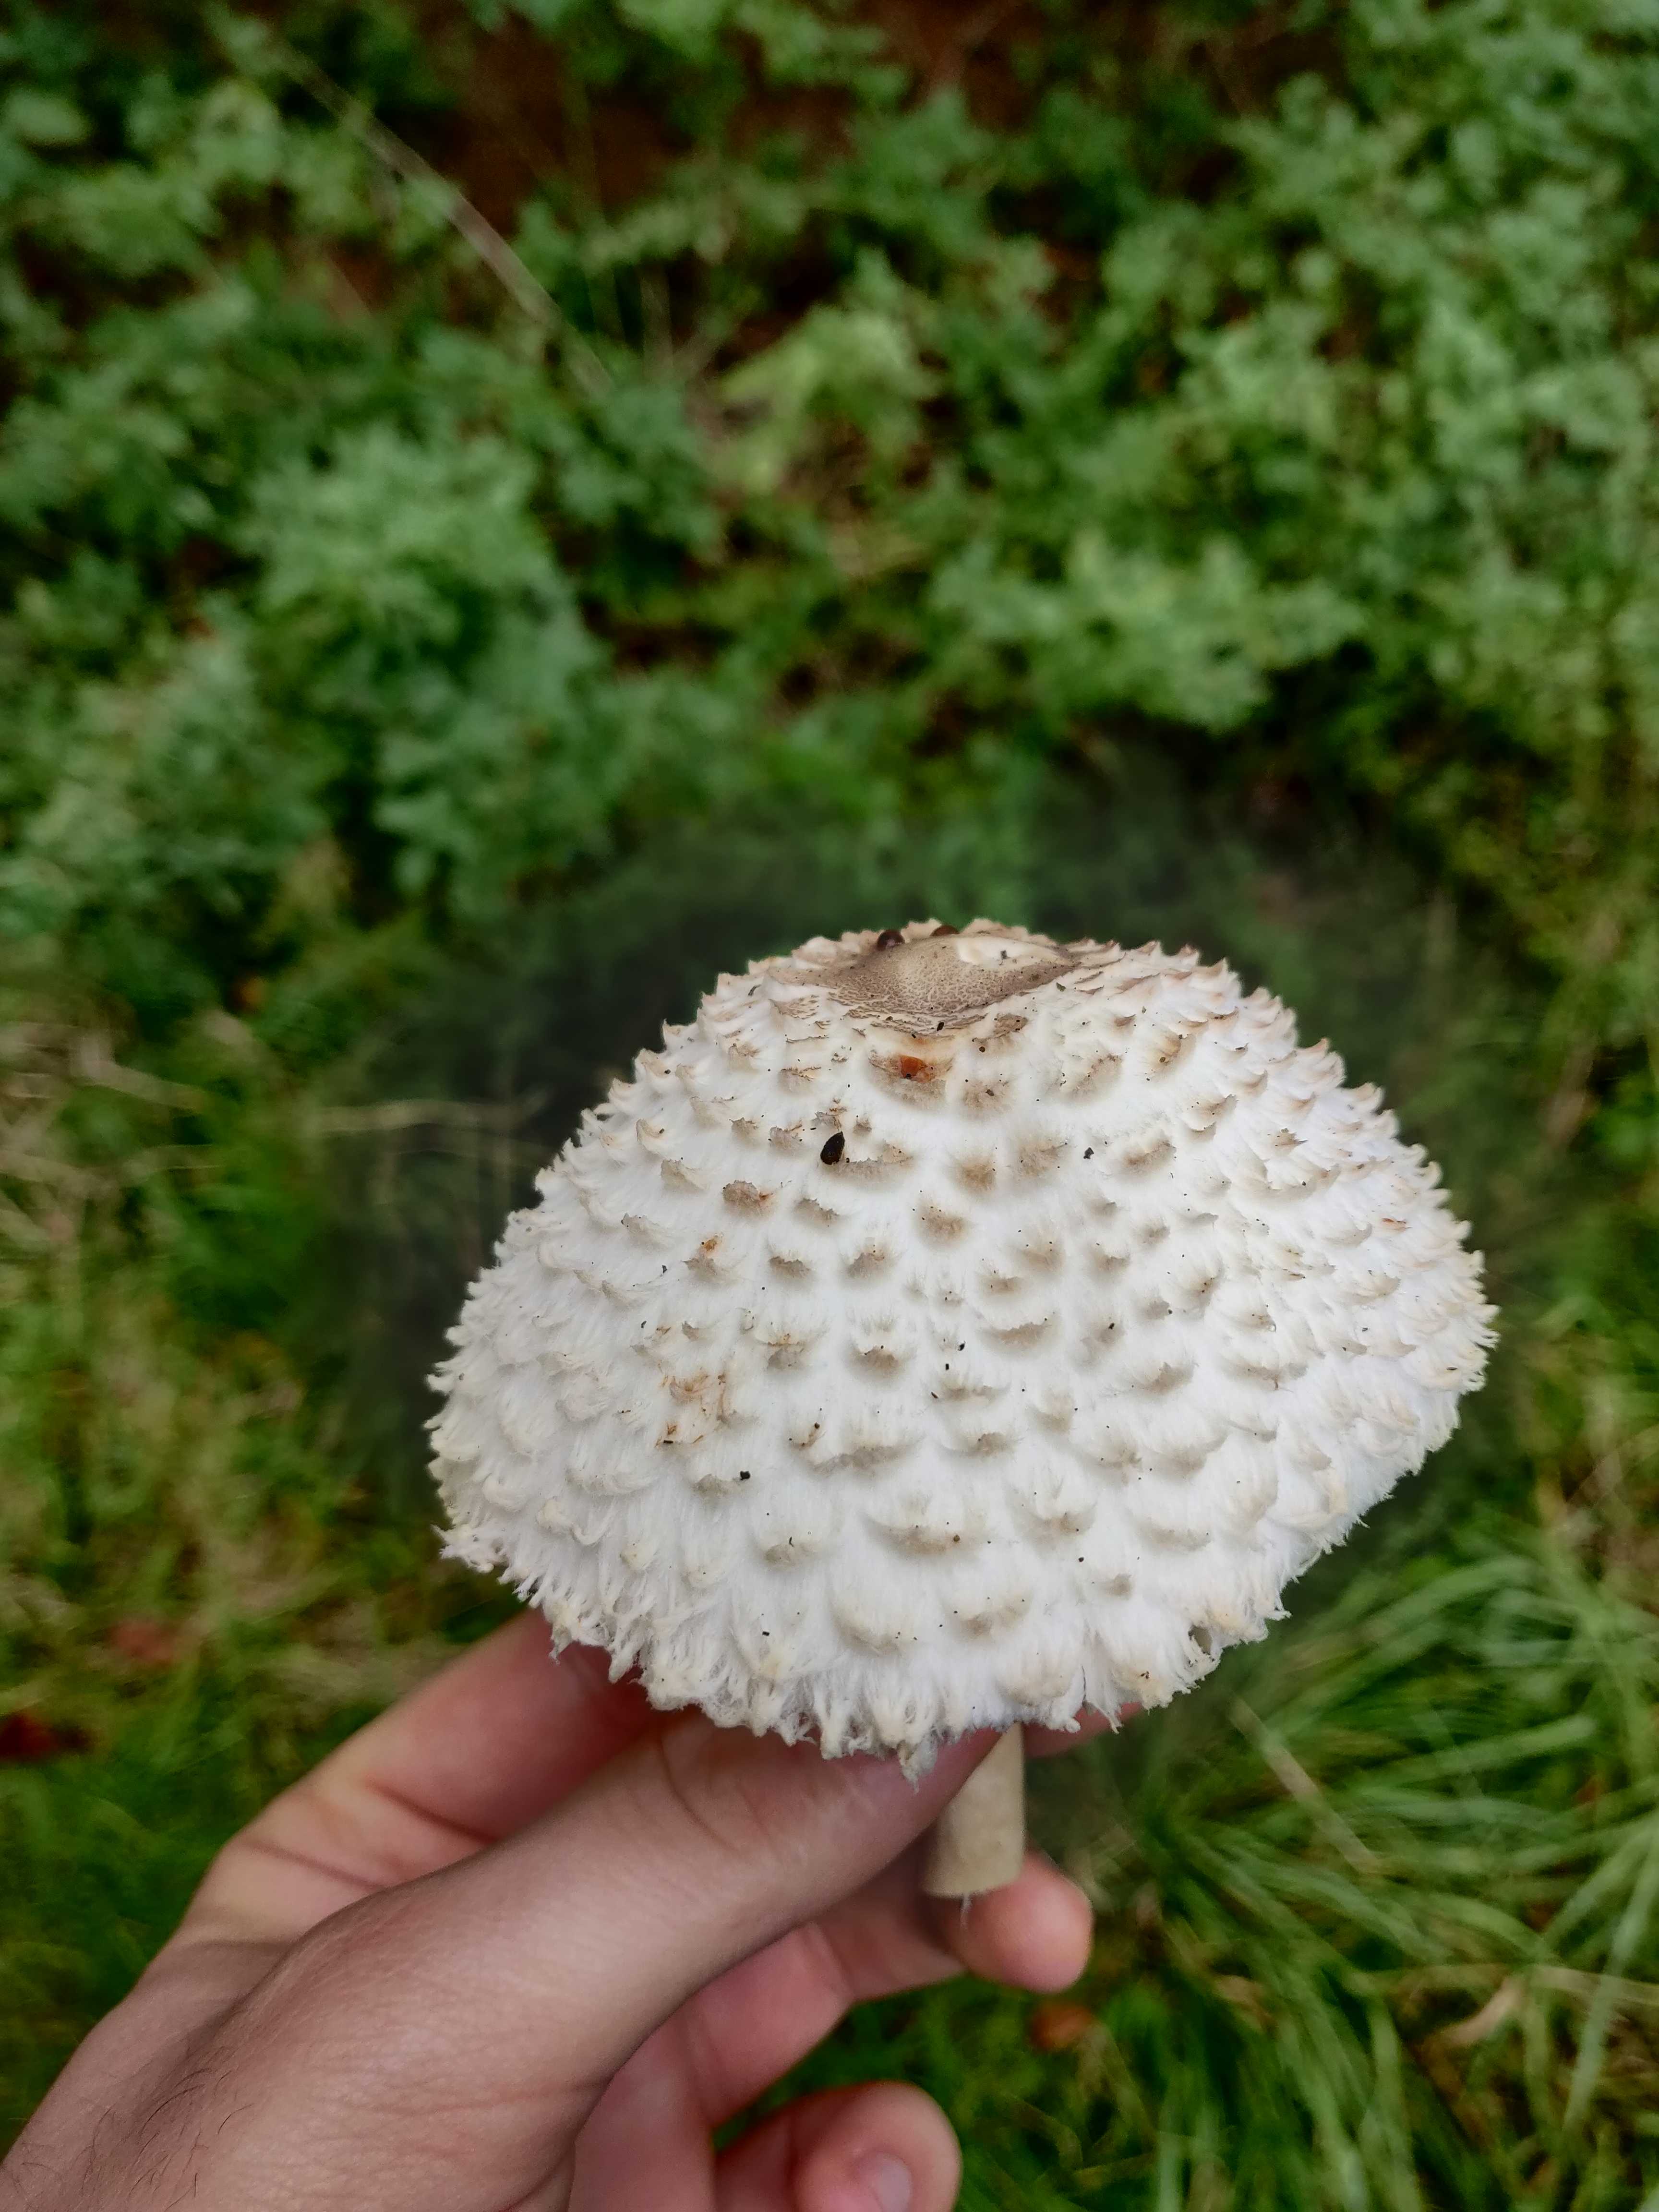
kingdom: Fungi
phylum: Basidiomycota
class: Agaricomycetes
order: Agaricales
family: Agaricaceae
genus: Leucoagaricus
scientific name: Leucoagaricus nympharum
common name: gran-silkehat
